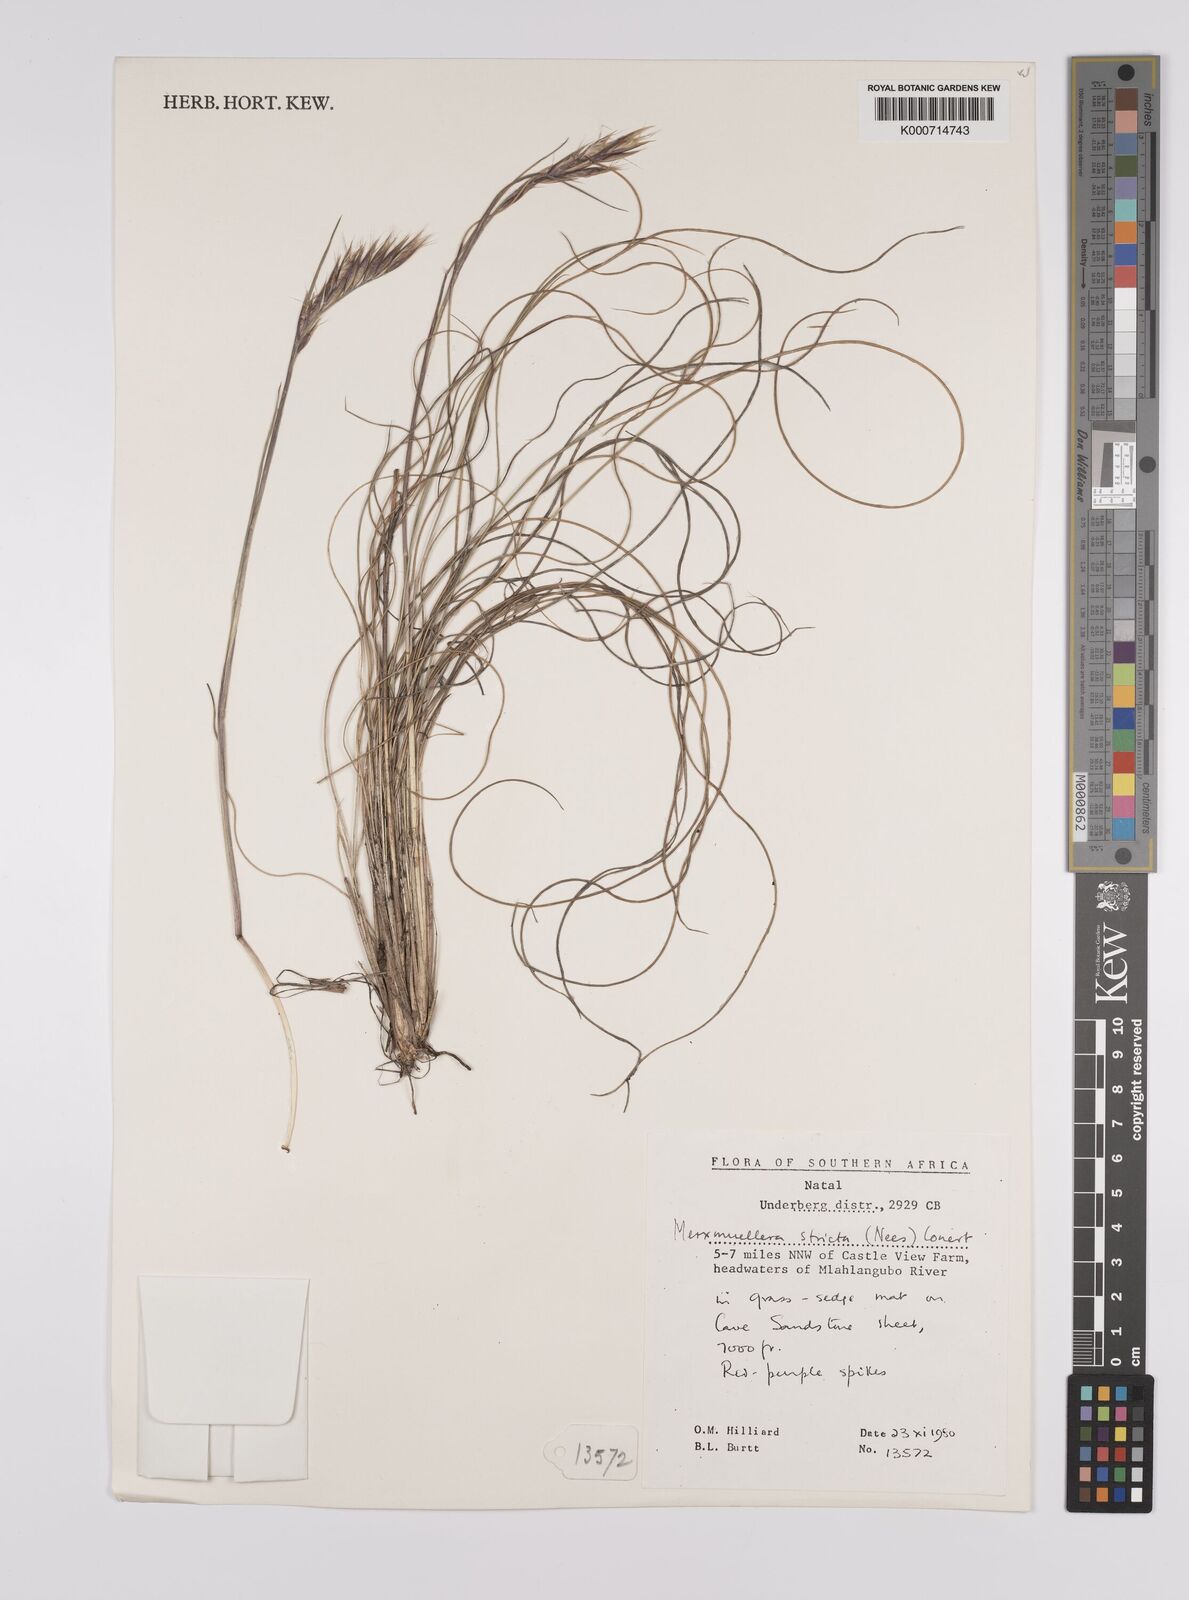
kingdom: Plantae
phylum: Tracheophyta
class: Liliopsida
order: Poales
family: Poaceae
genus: Rytidosperma
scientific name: Rytidosperma
